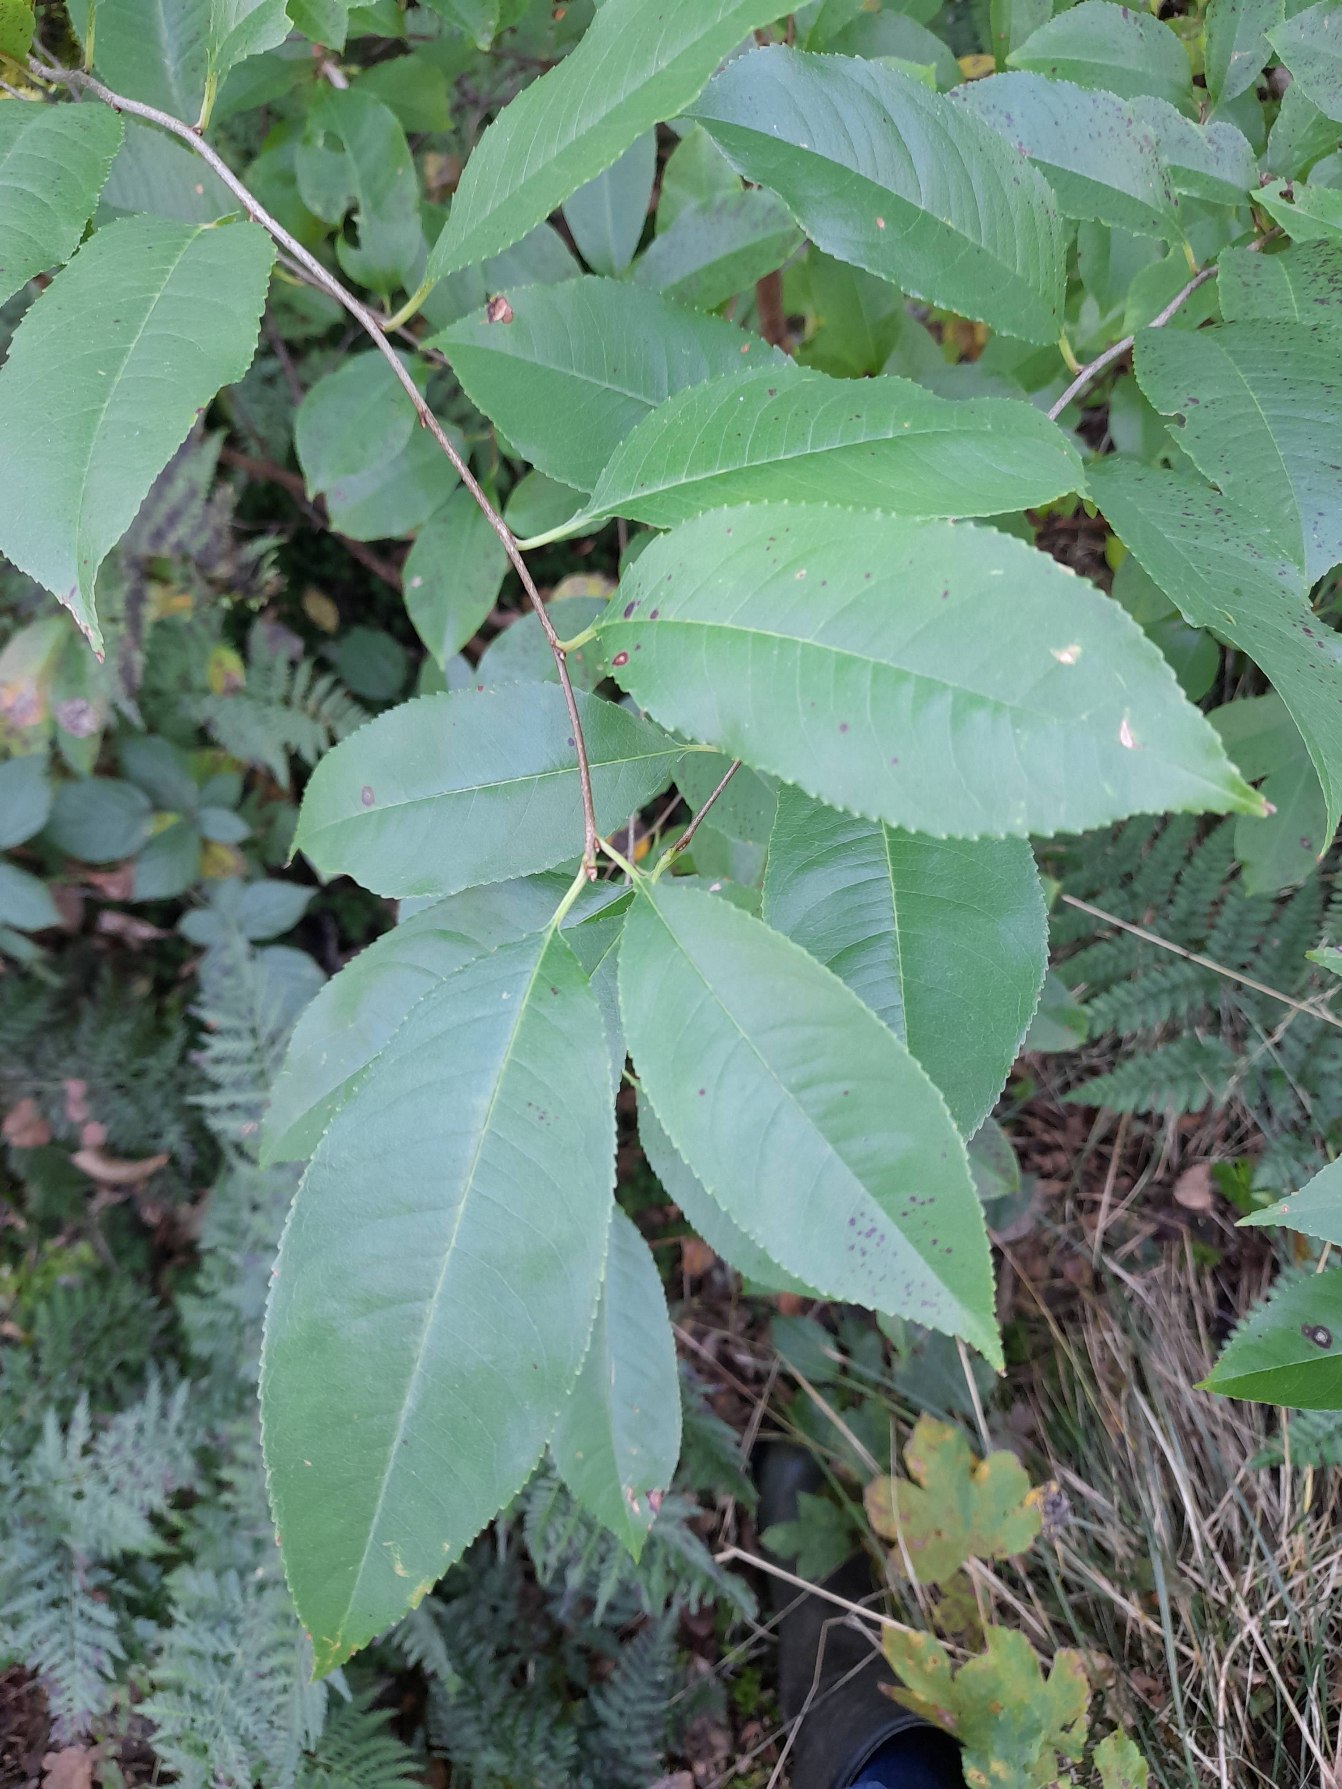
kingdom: Plantae
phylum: Tracheophyta
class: Magnoliopsida
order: Rosales
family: Rosaceae
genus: Prunus
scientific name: Prunus serotina
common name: Glansbladet hæg
